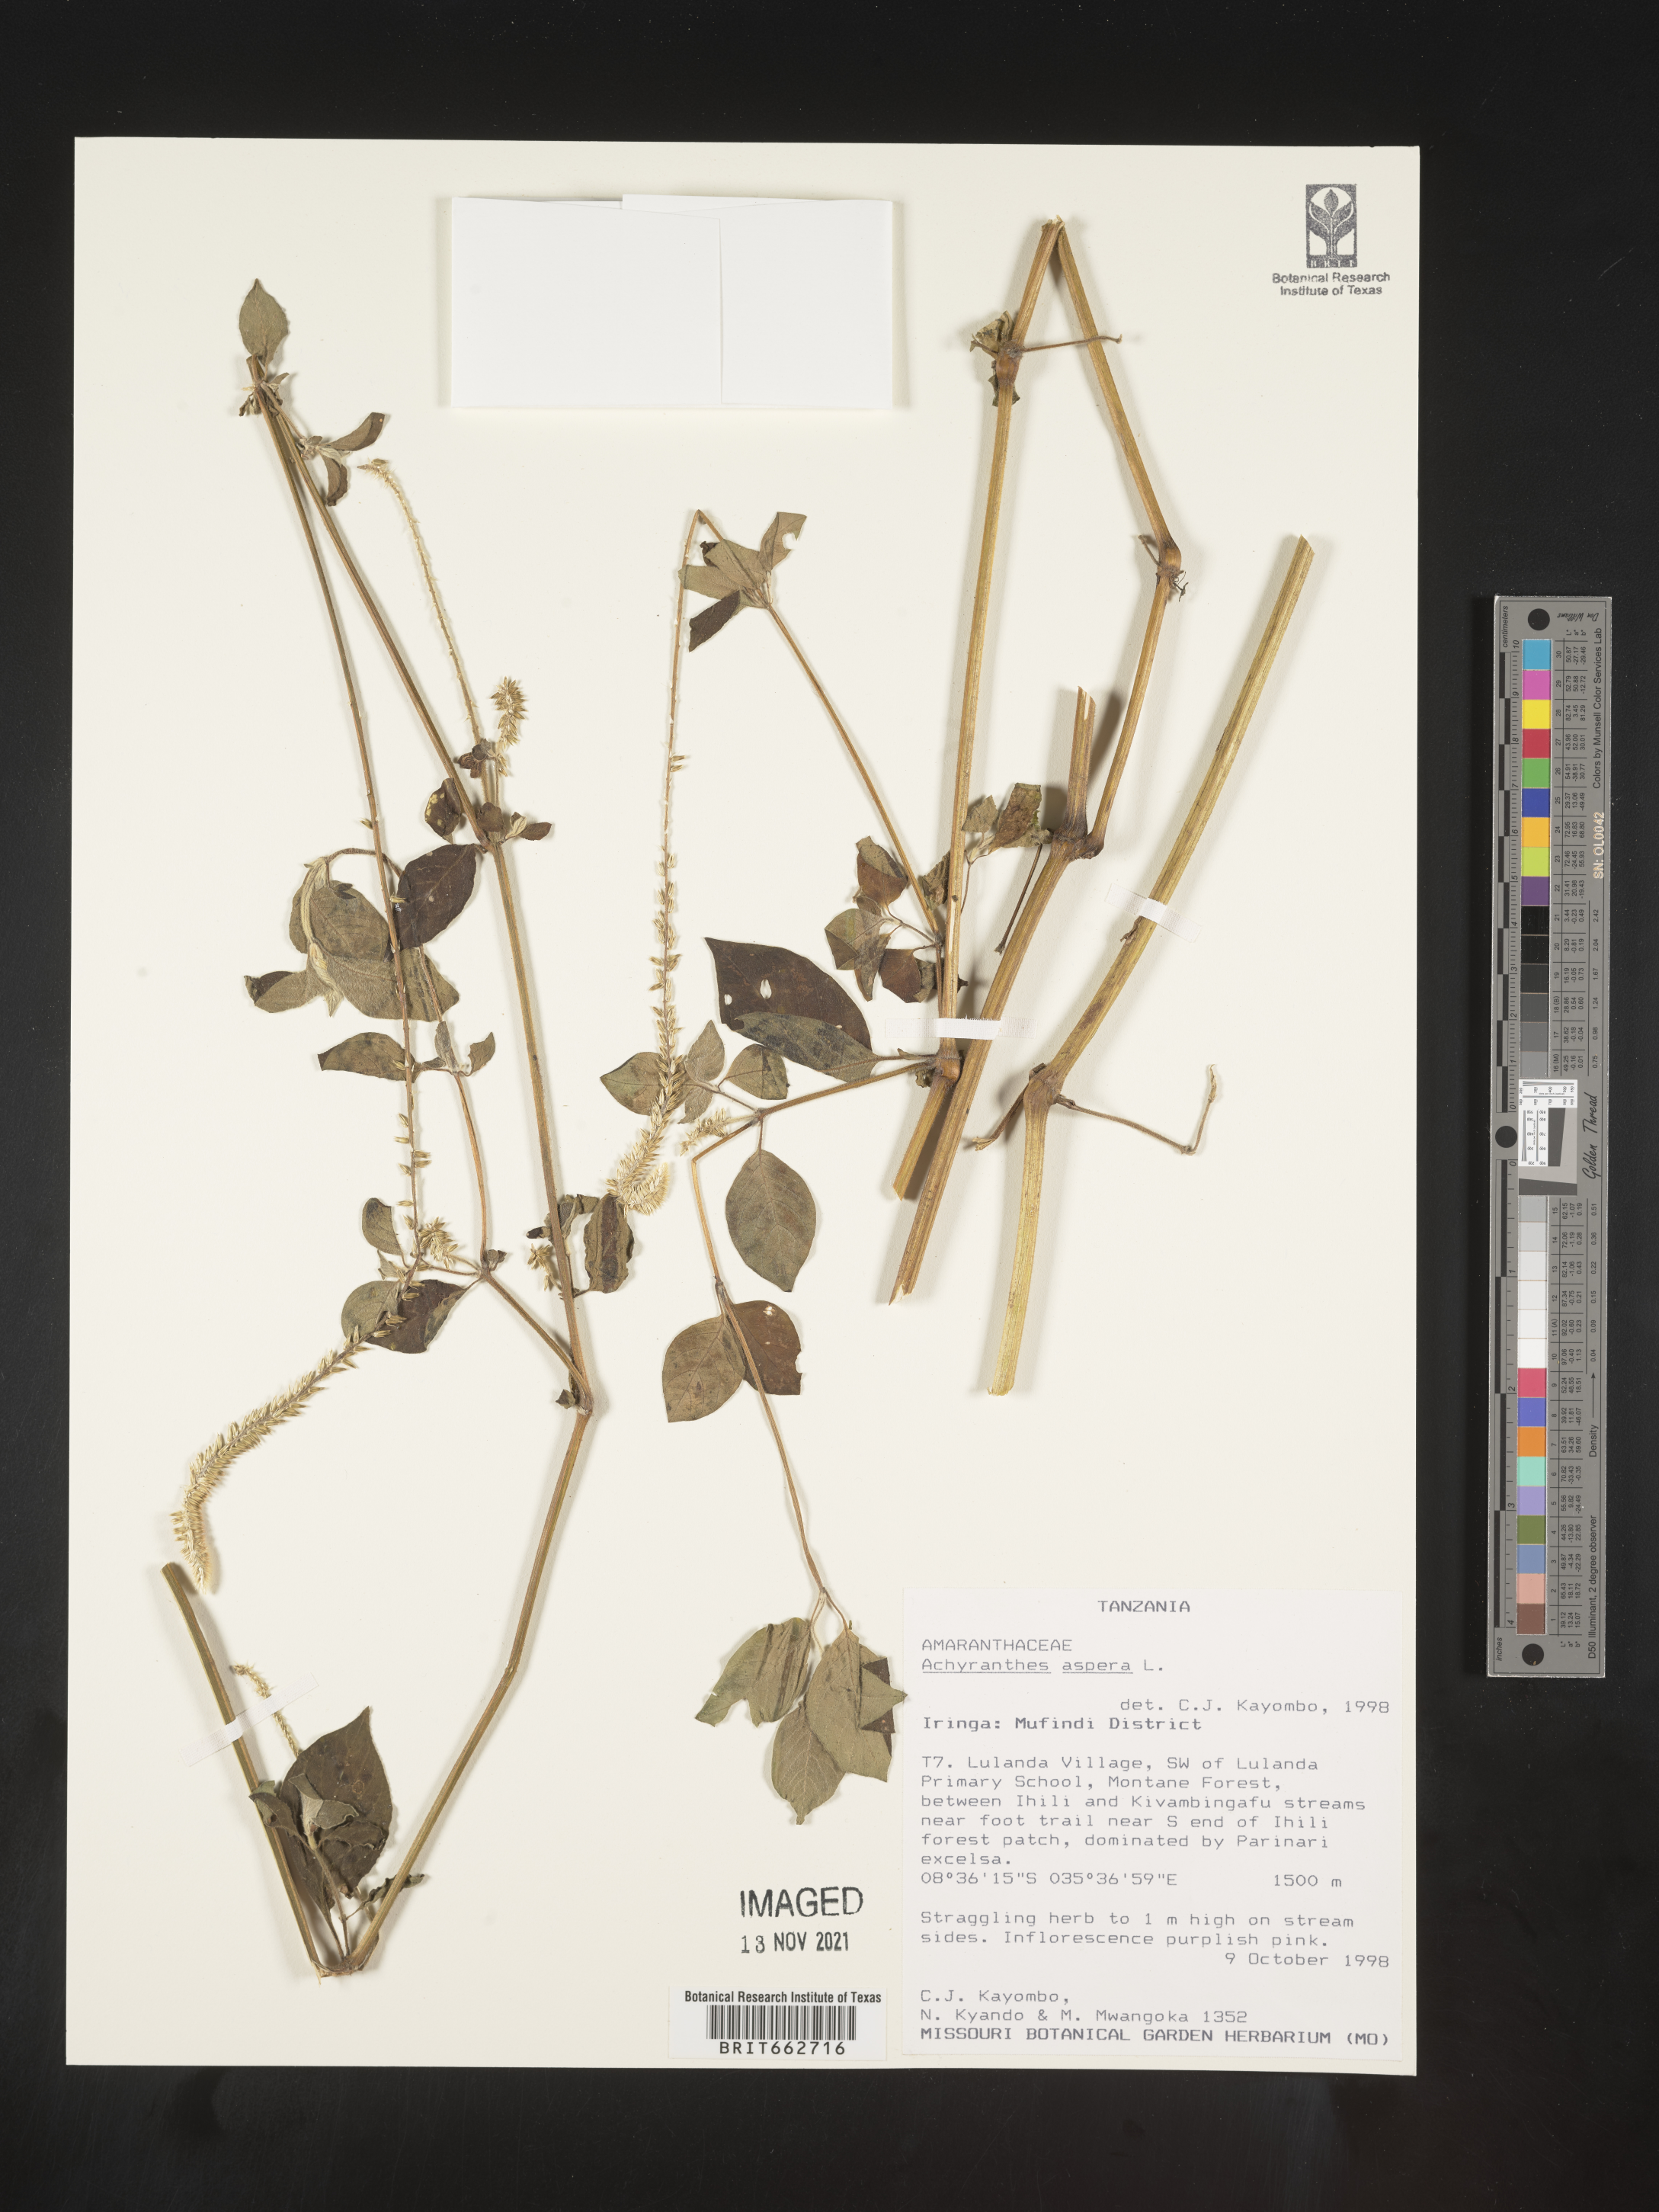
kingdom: Plantae
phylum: Tracheophyta
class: Magnoliopsida
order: Caryophyllales
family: Amaranthaceae
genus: Achyranthes
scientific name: Achyranthes
